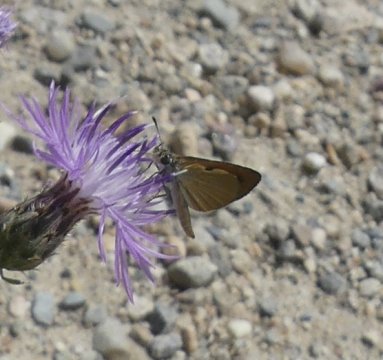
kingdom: Animalia
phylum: Arthropoda
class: Insecta
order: Lepidoptera
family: Hesperiidae
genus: Ancyloxypha
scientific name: Ancyloxypha numitor
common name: Least Skipper
